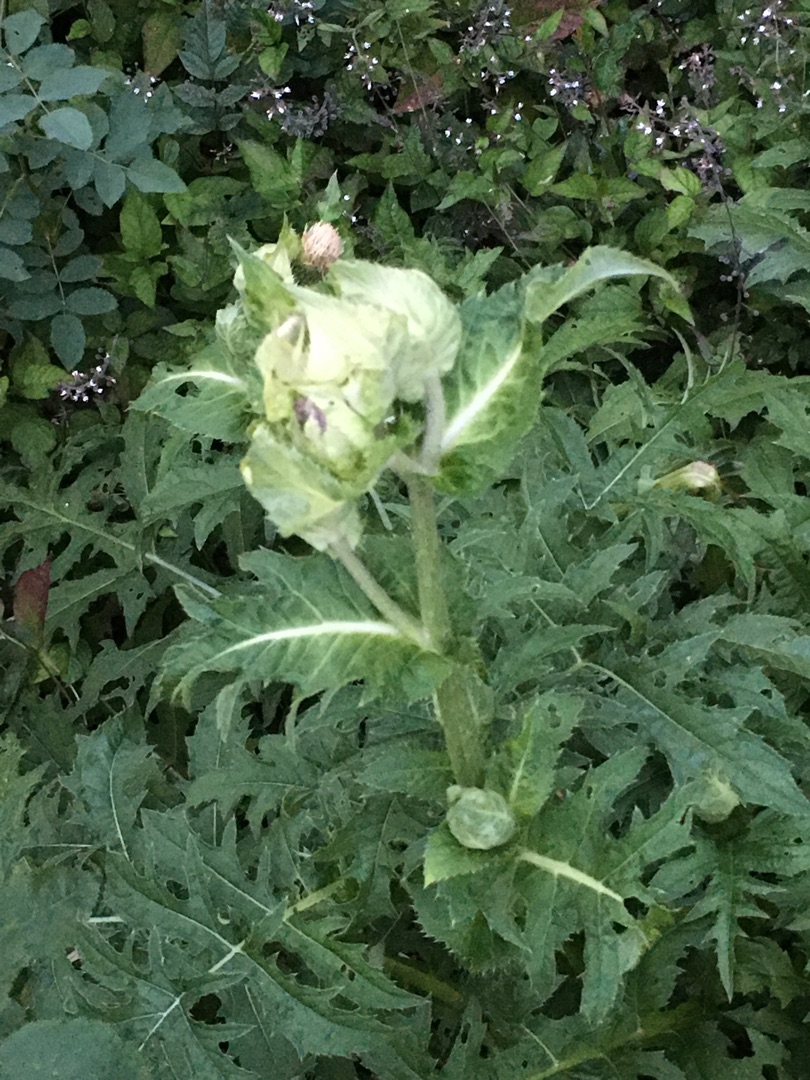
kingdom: Plantae
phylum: Tracheophyta
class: Magnoliopsida
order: Asterales
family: Asteraceae
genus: Cirsium
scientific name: Cirsium oleraceum
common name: Kål-tidsel
